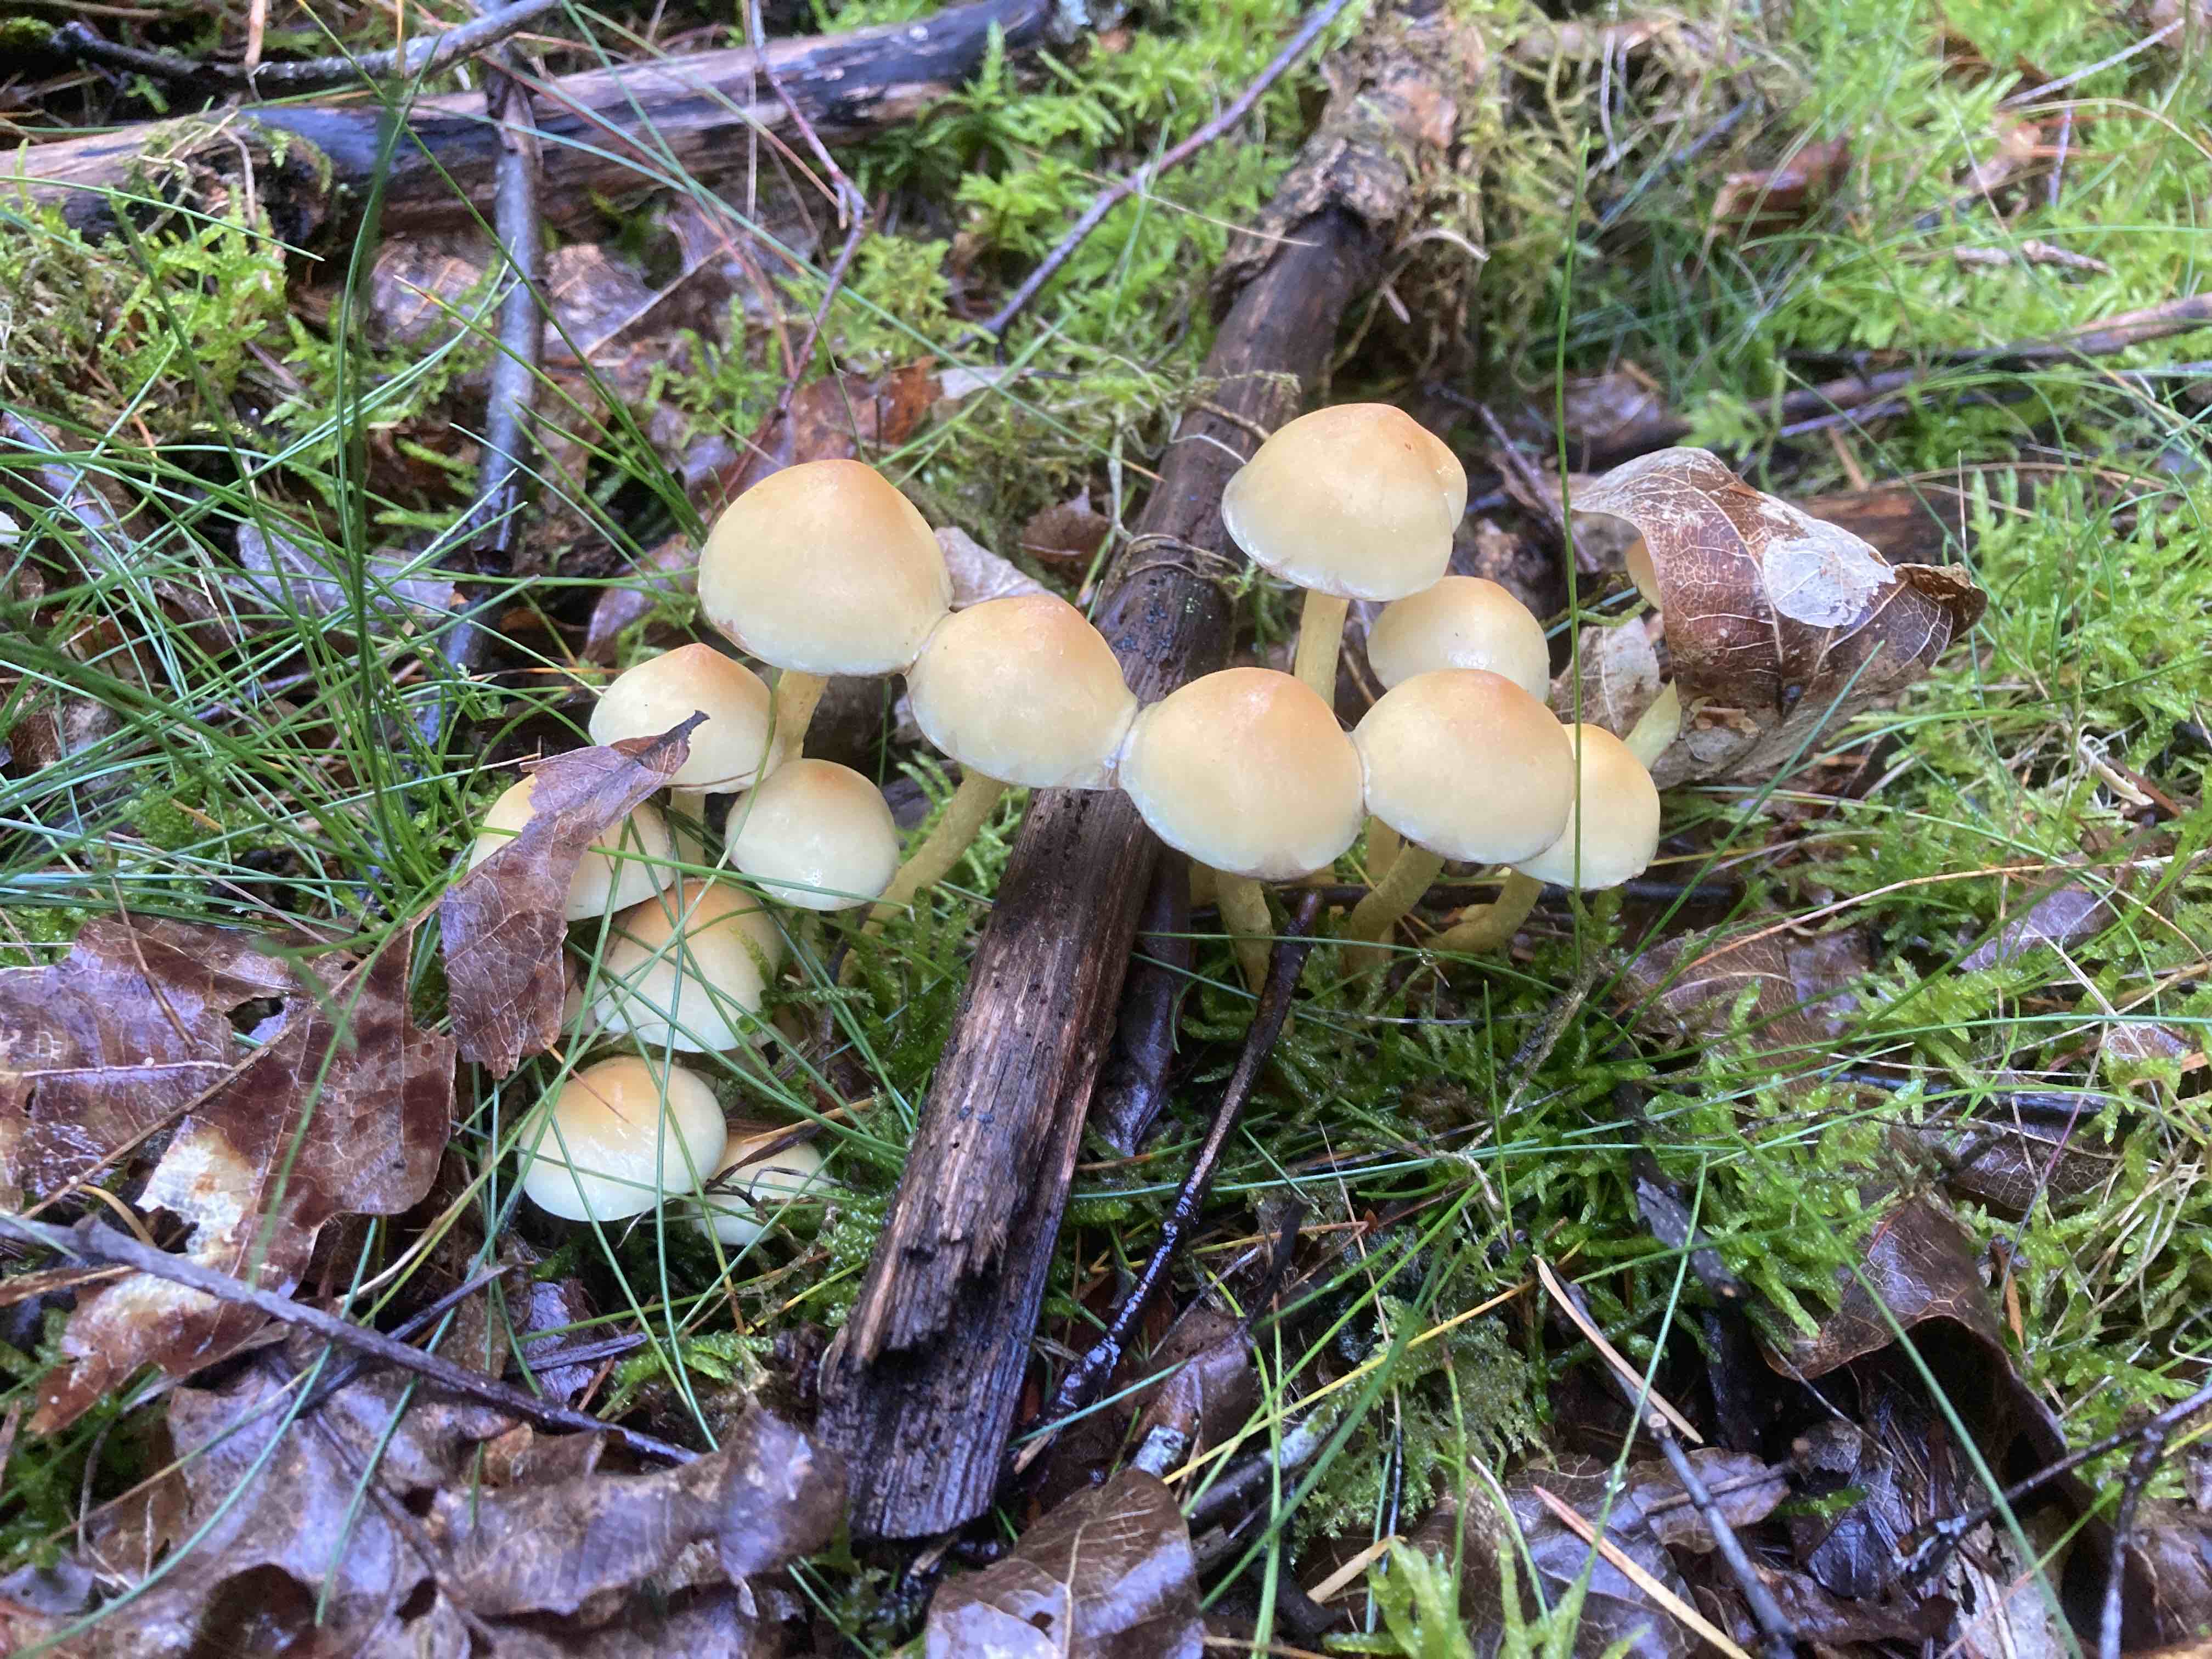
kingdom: Fungi
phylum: Basidiomycota
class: Agaricomycetes
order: Agaricales
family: Strophariaceae
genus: Hypholoma
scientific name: Hypholoma
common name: svovlhat
